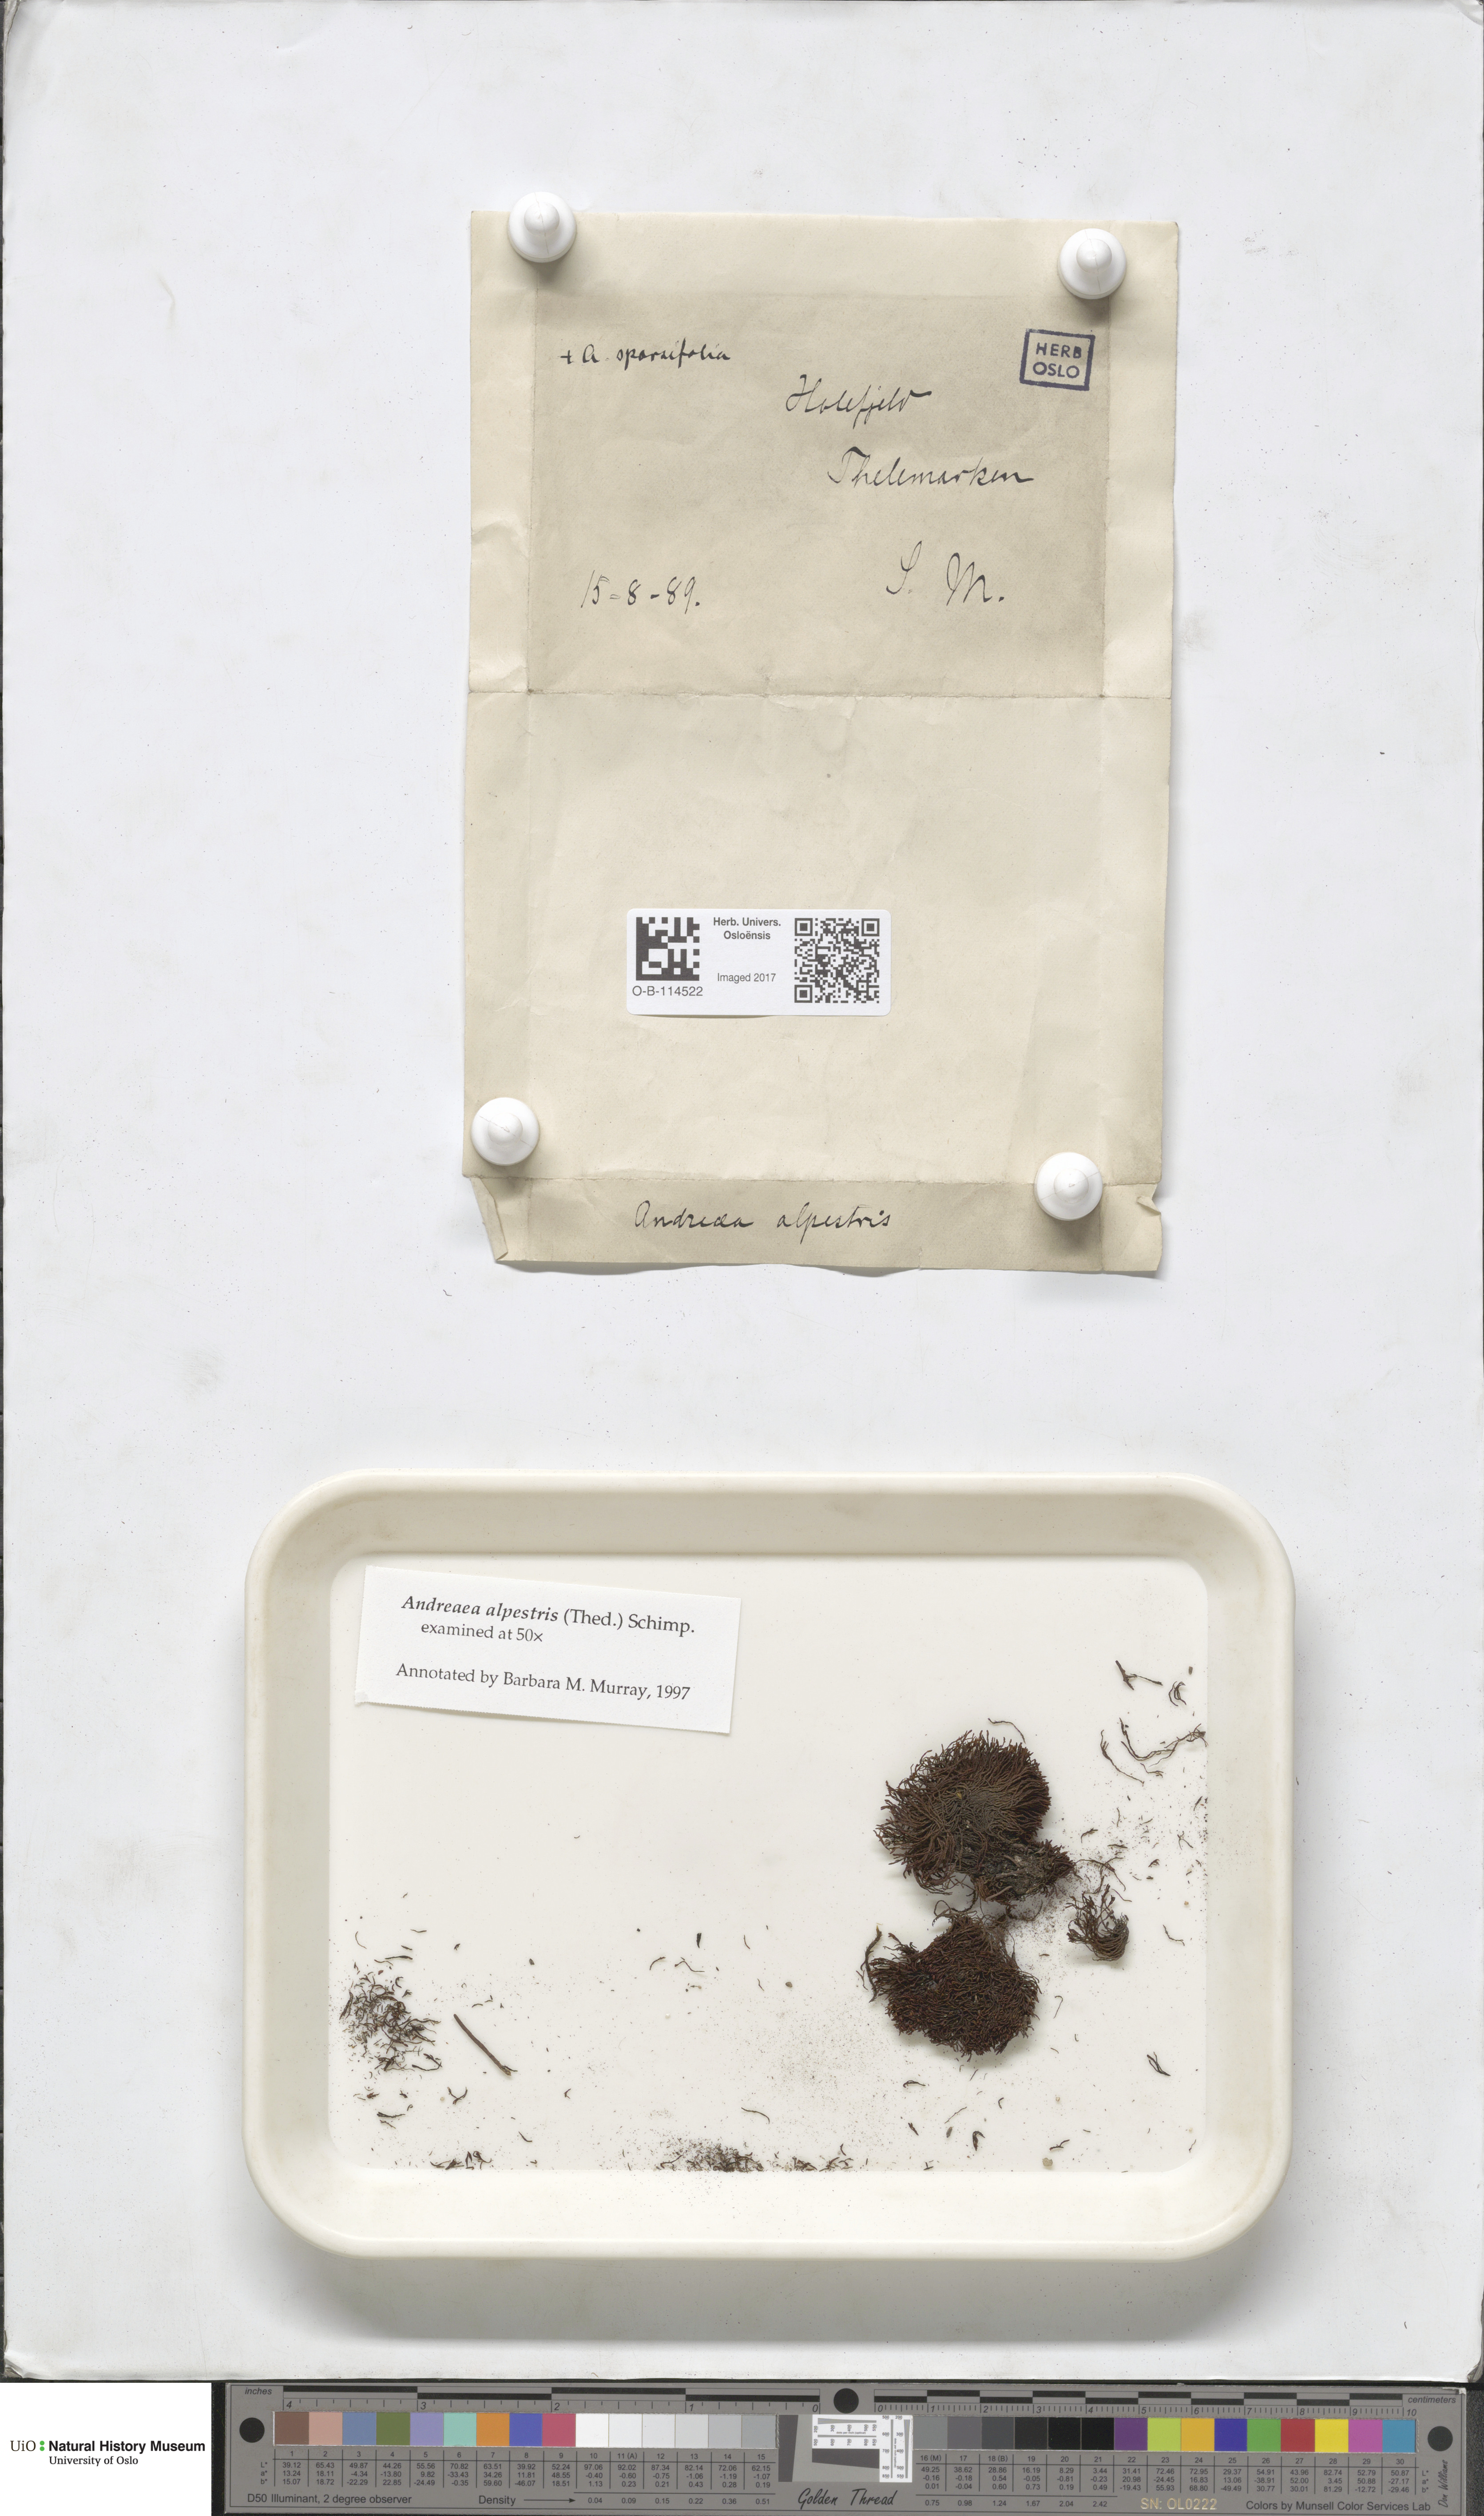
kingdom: Plantae
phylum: Bryophyta
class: Andreaeopsida
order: Andreaeales
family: Andreaeaceae
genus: Andreaea
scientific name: Andreaea alpestris
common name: Slender rock-moss
